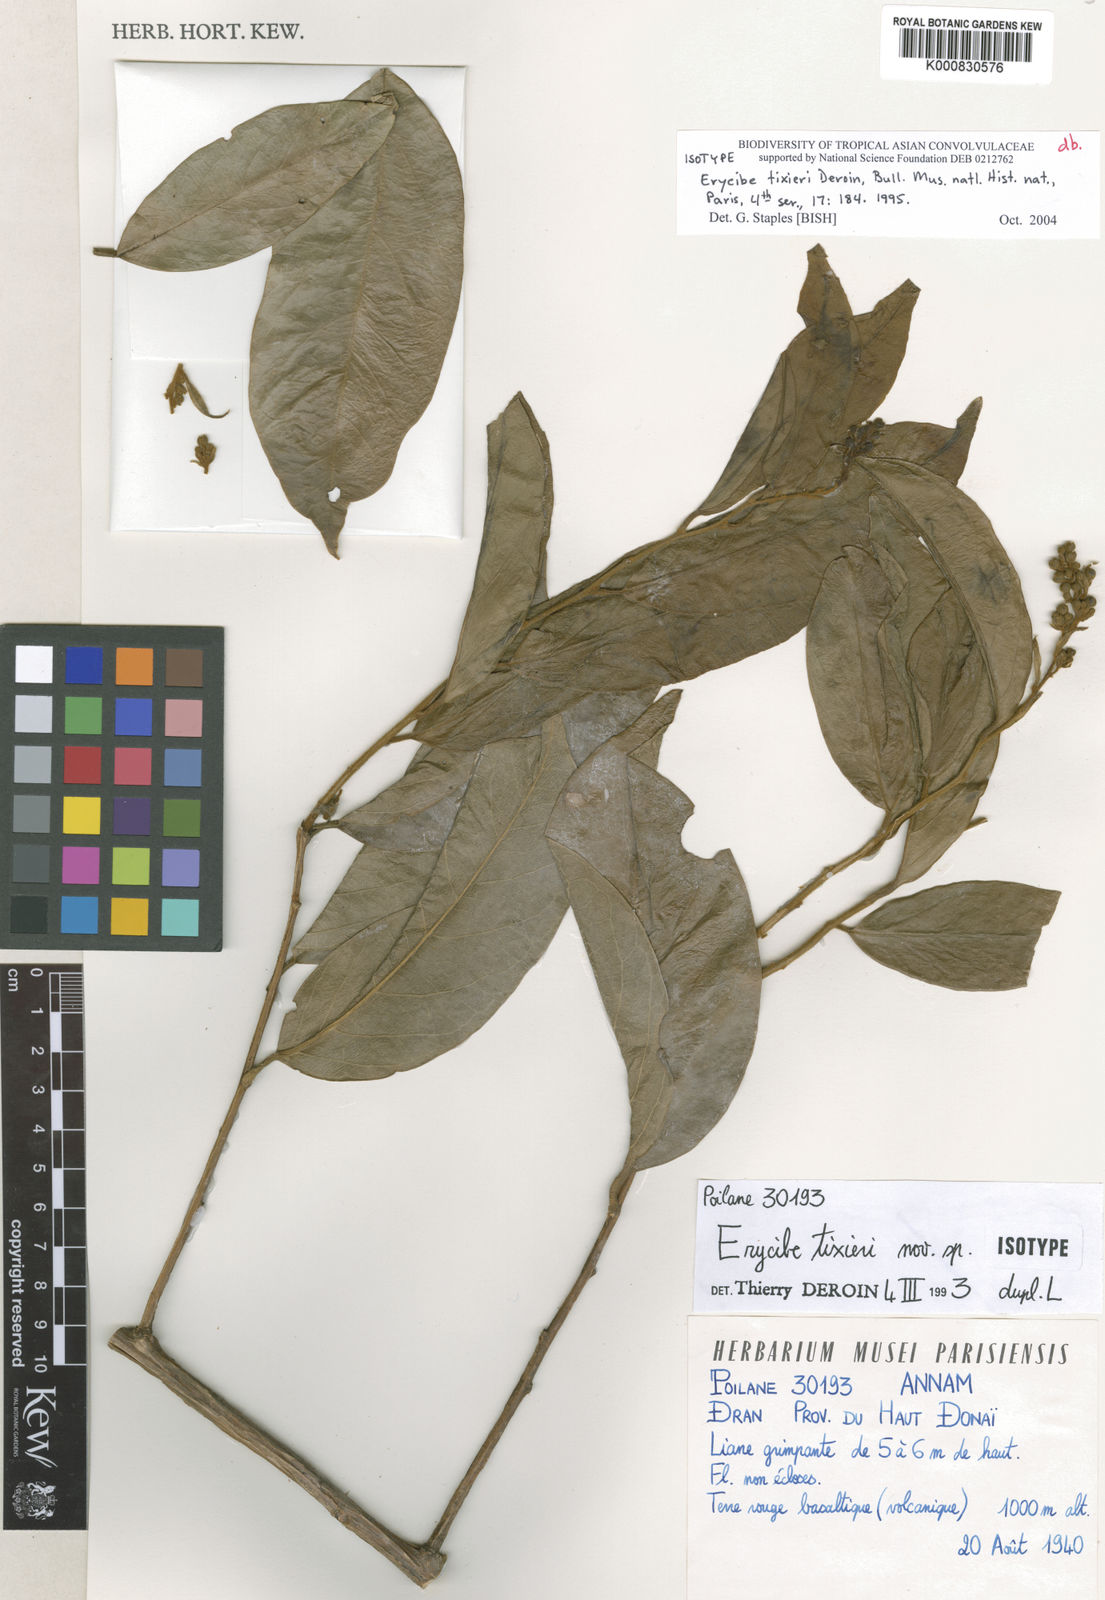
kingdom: Plantae
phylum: Tracheophyta
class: Magnoliopsida
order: Solanales
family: Convolvulaceae
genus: Erycibe
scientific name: Erycibe tixieri
